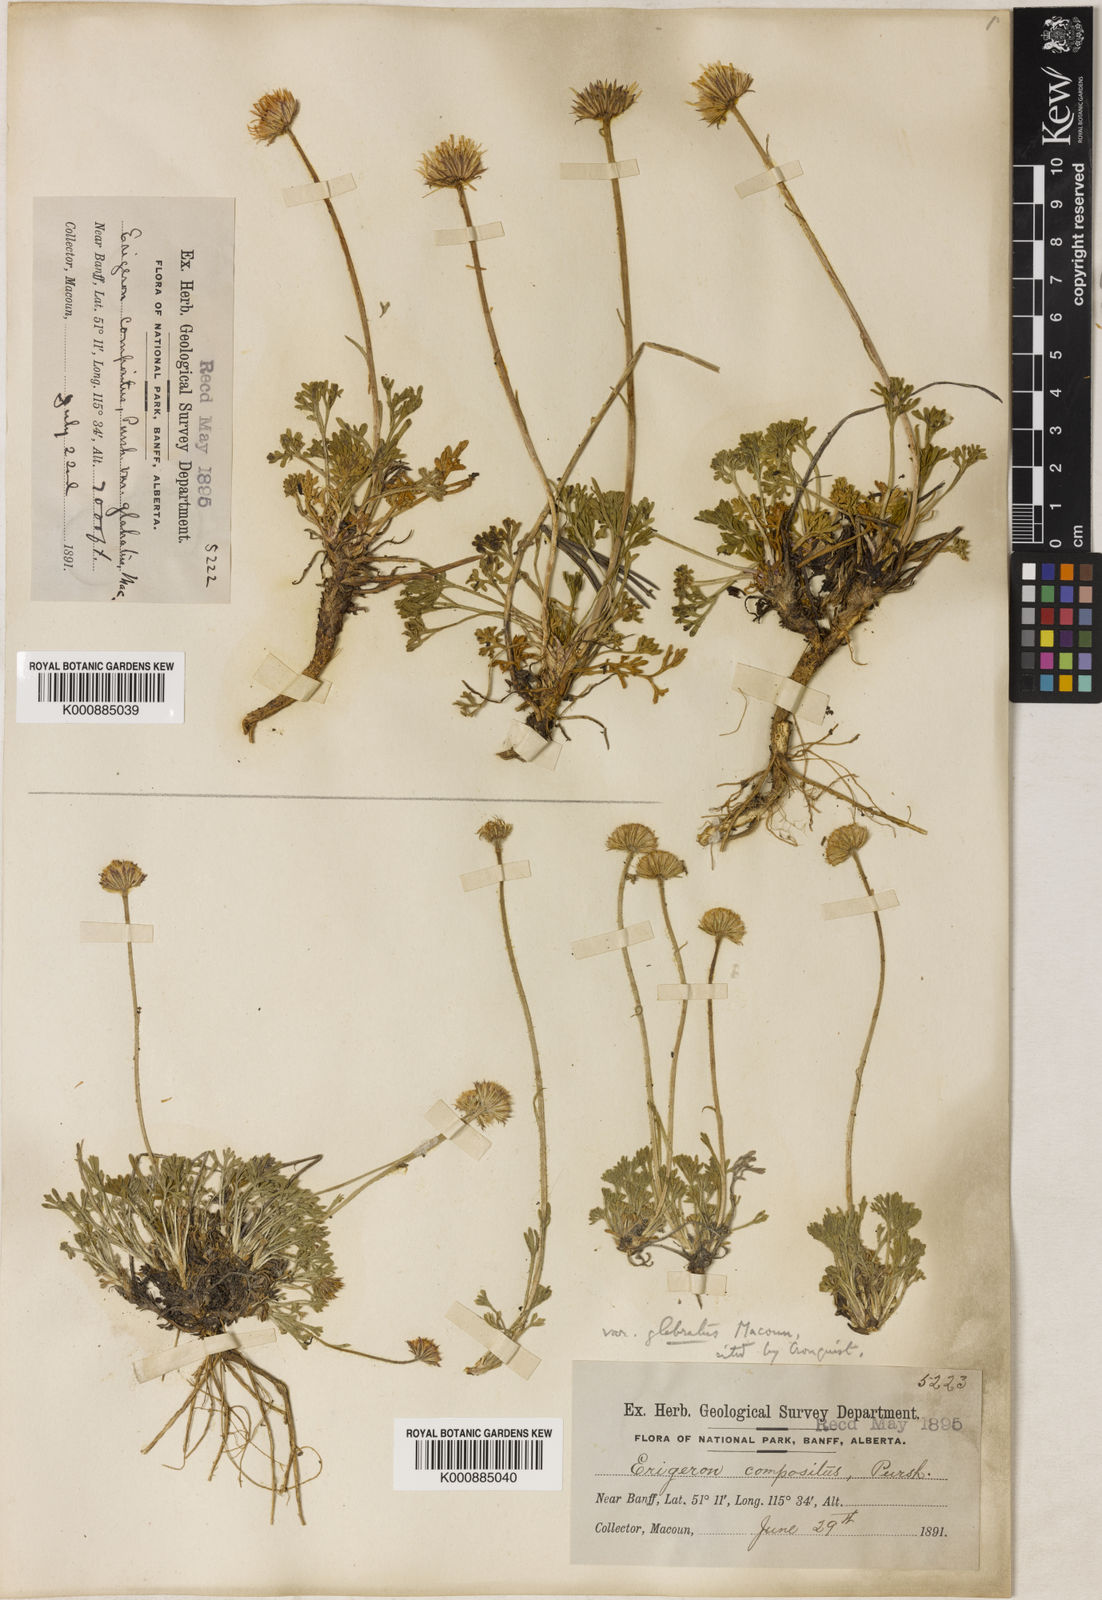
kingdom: Plantae
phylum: Tracheophyta
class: Magnoliopsida
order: Asterales
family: Asteraceae
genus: Erigeron
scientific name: Erigeron compositus
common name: Dwarf mountain fleabane
